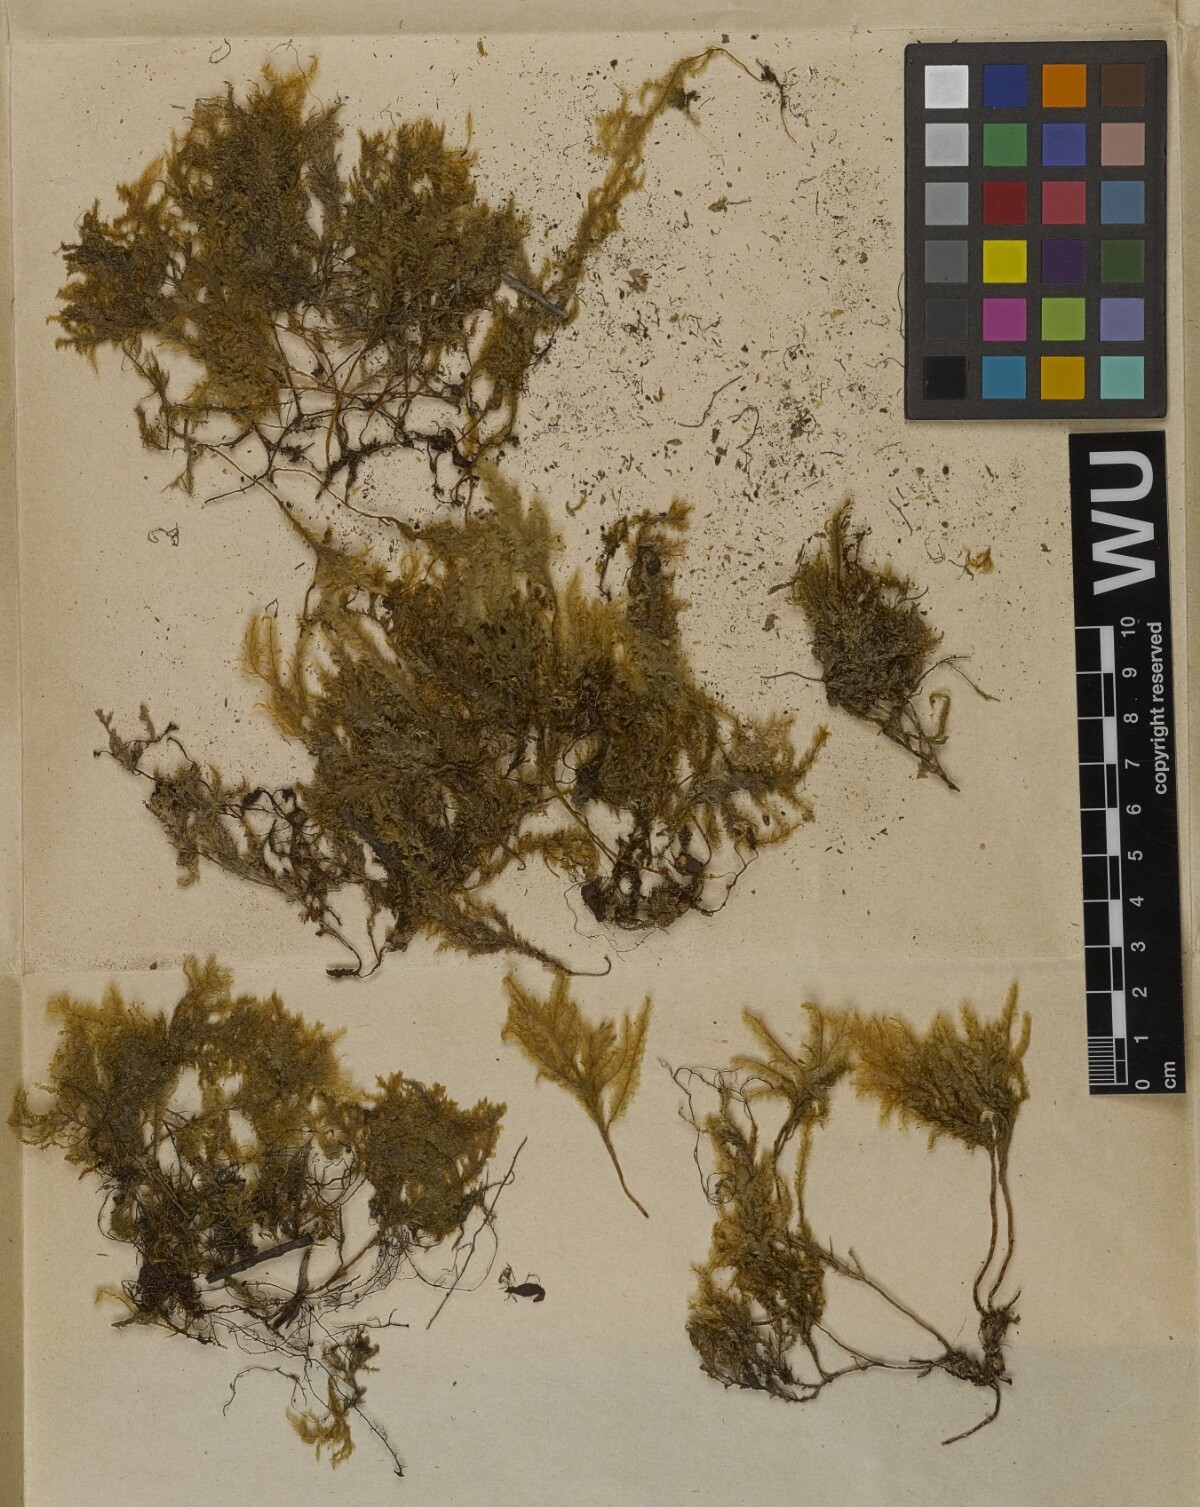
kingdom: Plantae
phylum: Bryophyta
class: Bryopsida
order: Hypnales
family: Neckeraceae
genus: Homaliodendron
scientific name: Homaliodendron flabellatum
